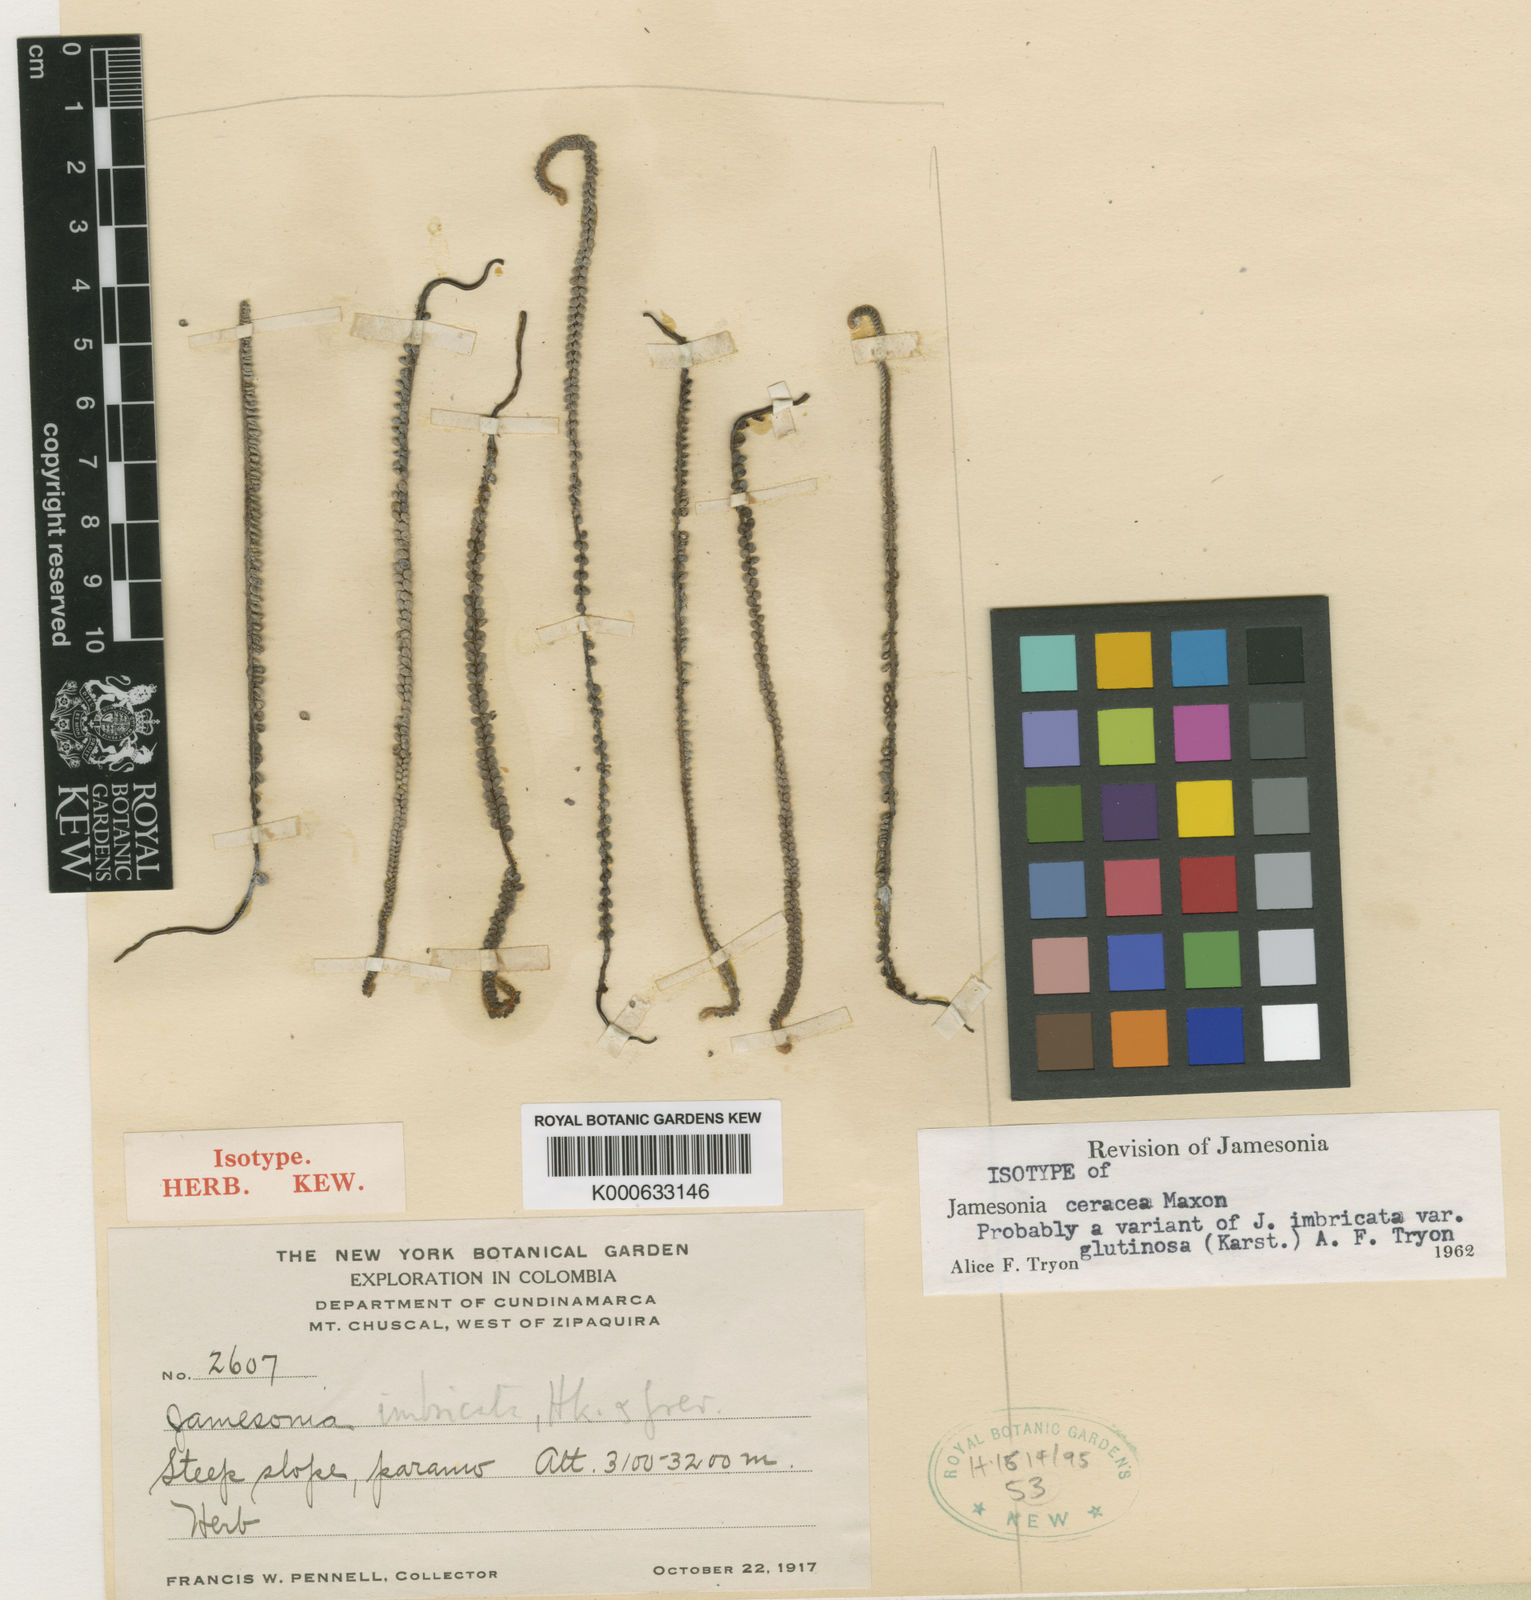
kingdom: Plantae
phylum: Tracheophyta
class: Polypodiopsida
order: Polypodiales
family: Pteridaceae
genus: Jamesonia
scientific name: Jamesonia ceracea
